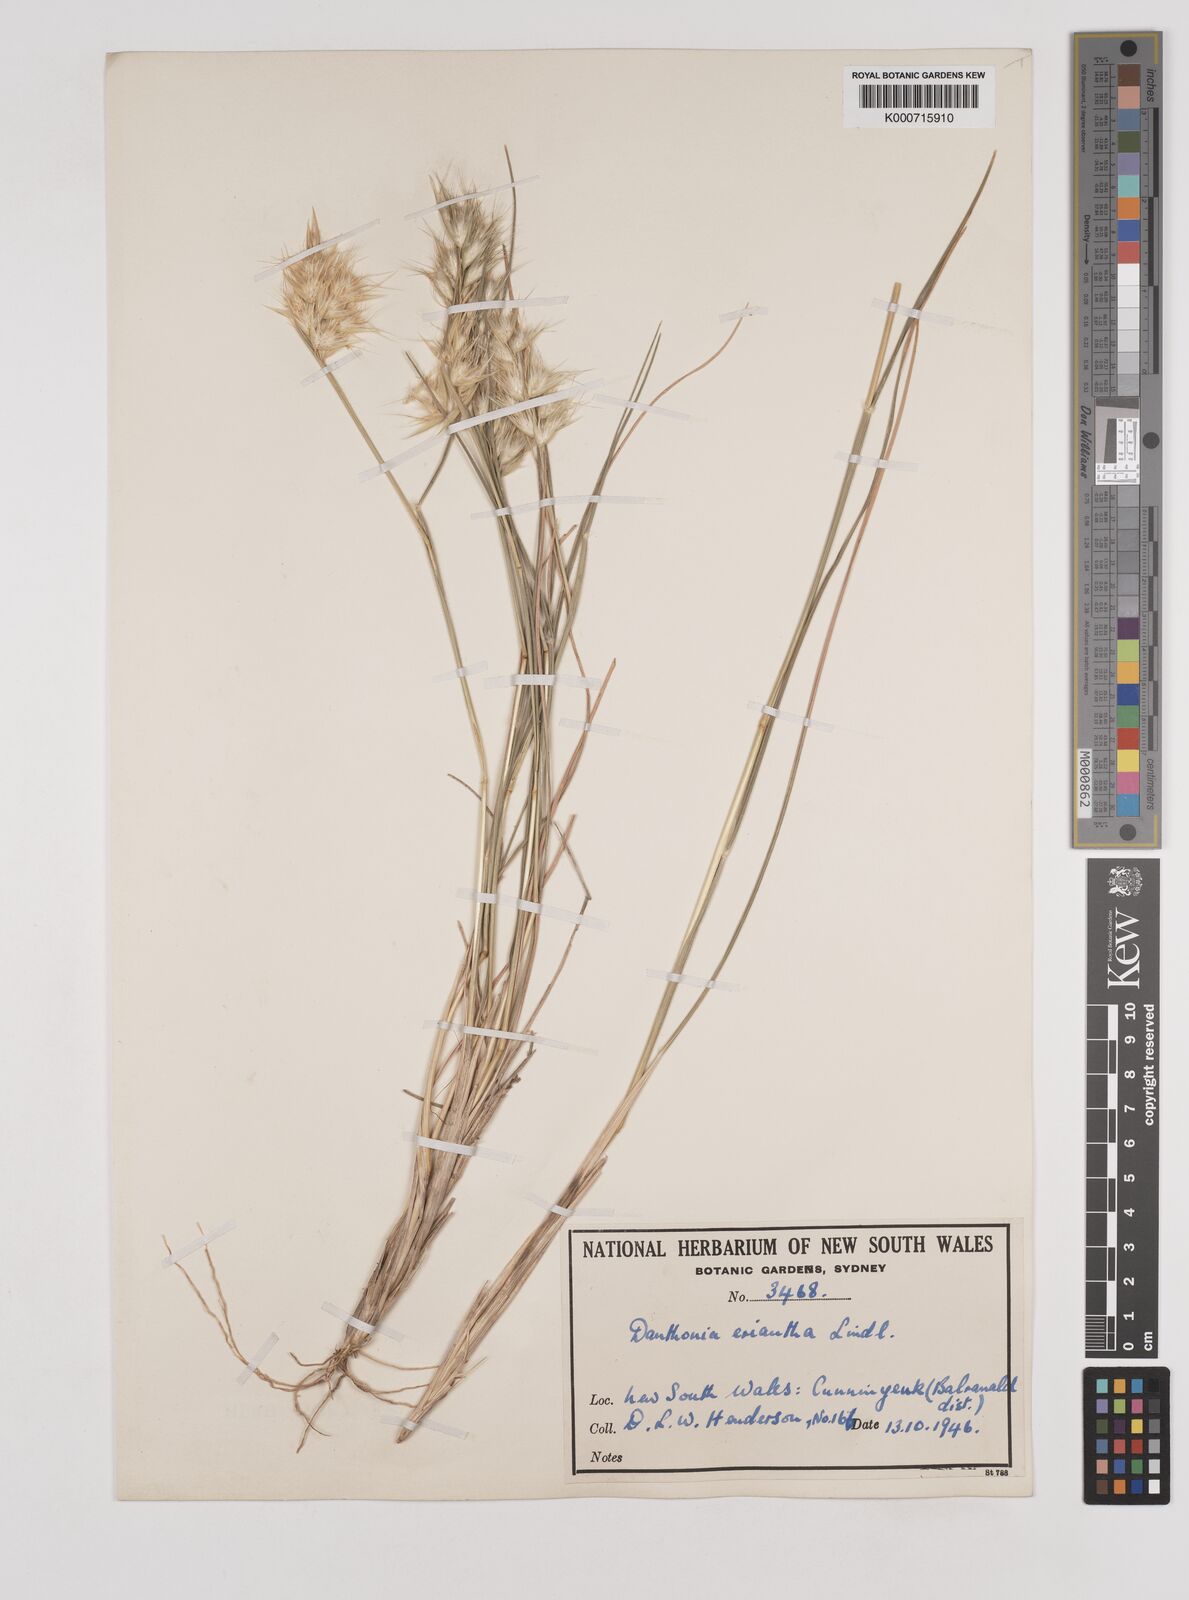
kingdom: Plantae
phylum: Tracheophyta
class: Liliopsida
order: Poales
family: Poaceae
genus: Rytidosperma
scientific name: Rytidosperma erianthum
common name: Hill wallaby grass
